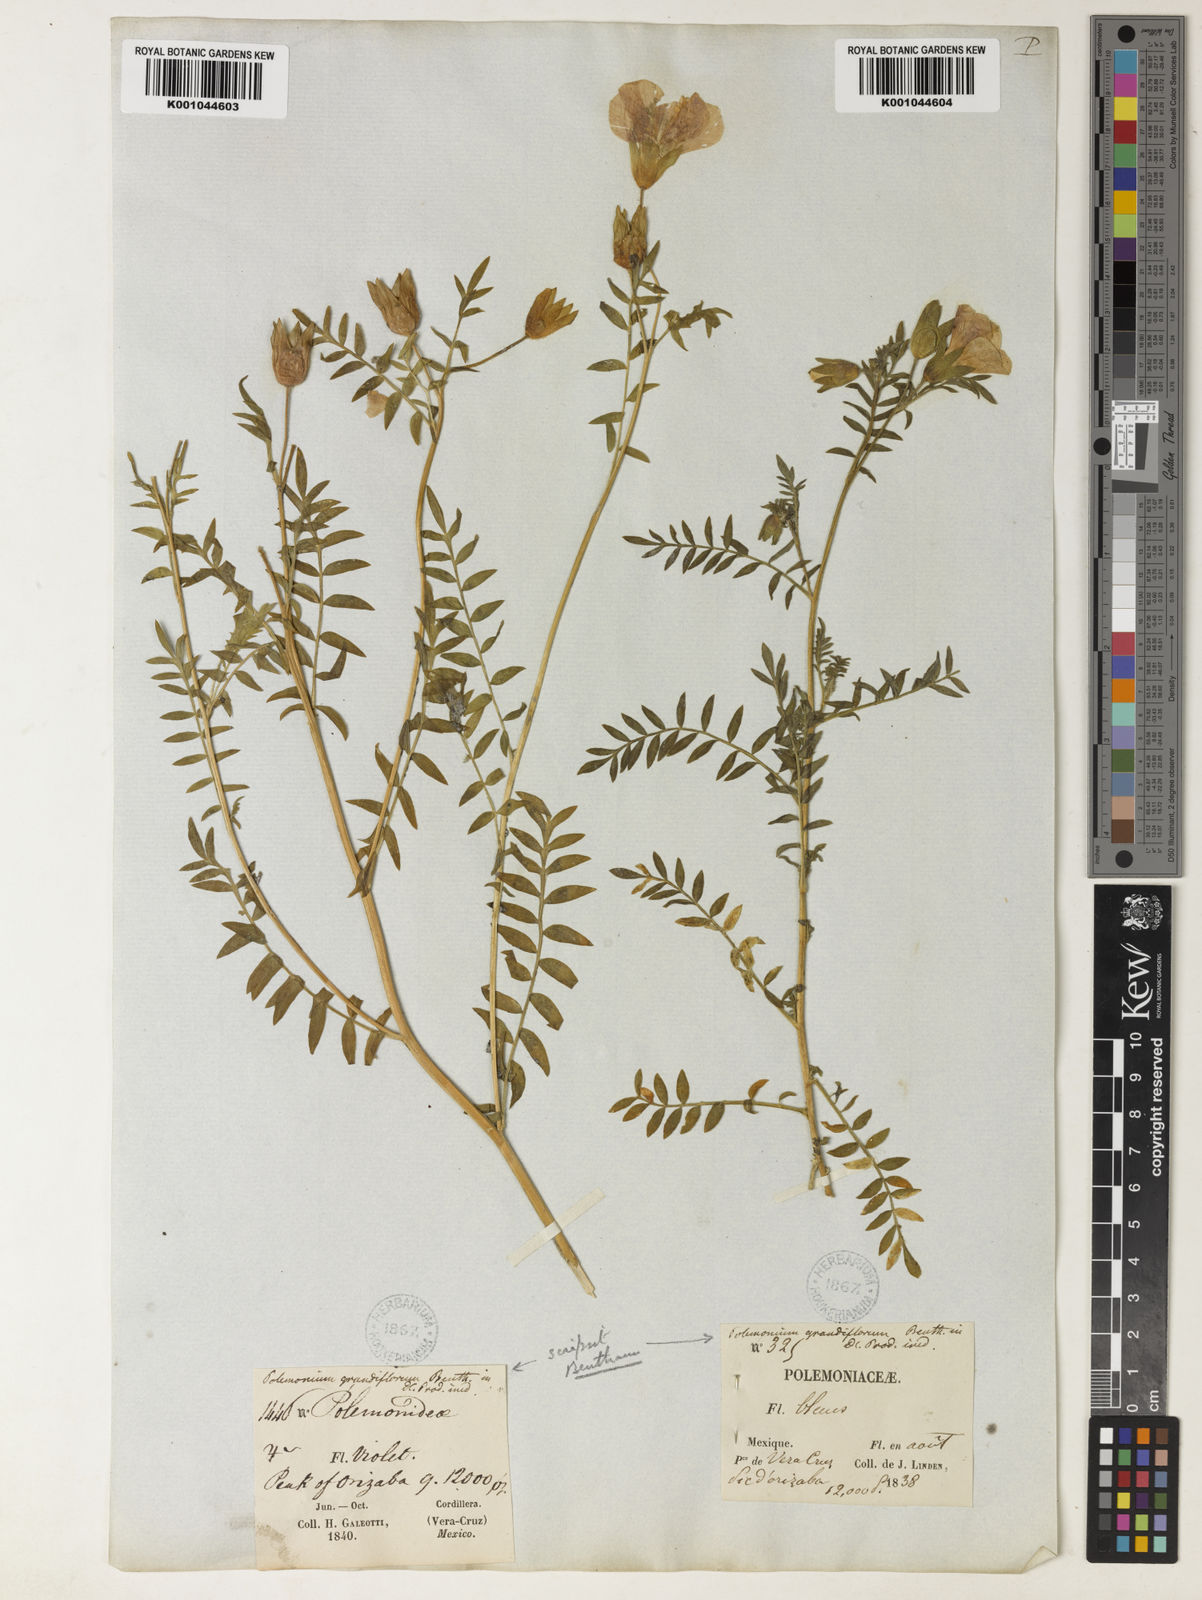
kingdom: Plantae
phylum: Tracheophyta
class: Magnoliopsida
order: Ericales
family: Polemoniaceae
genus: Polemonium
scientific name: Polemonium grandiflorum
